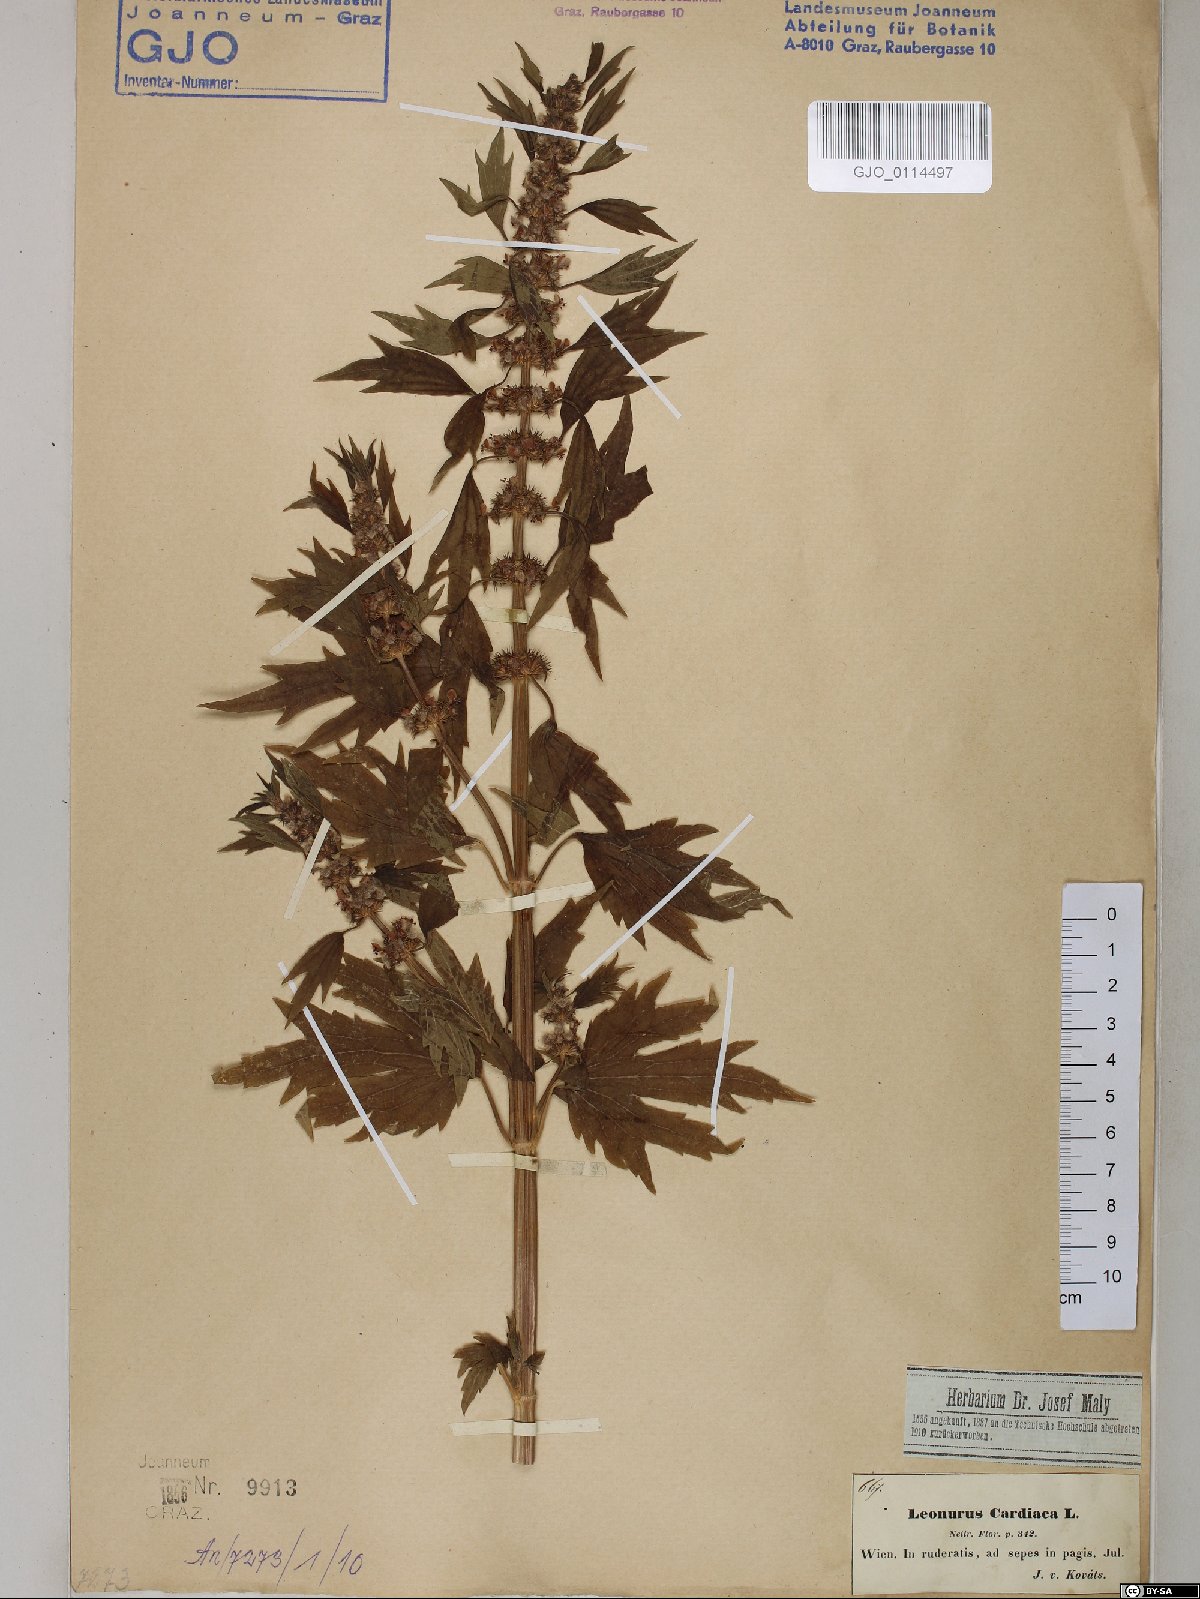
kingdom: Plantae
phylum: Tracheophyta
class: Magnoliopsida
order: Lamiales
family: Lamiaceae
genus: Leonurus
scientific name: Leonurus cardiaca
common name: Motherwort
